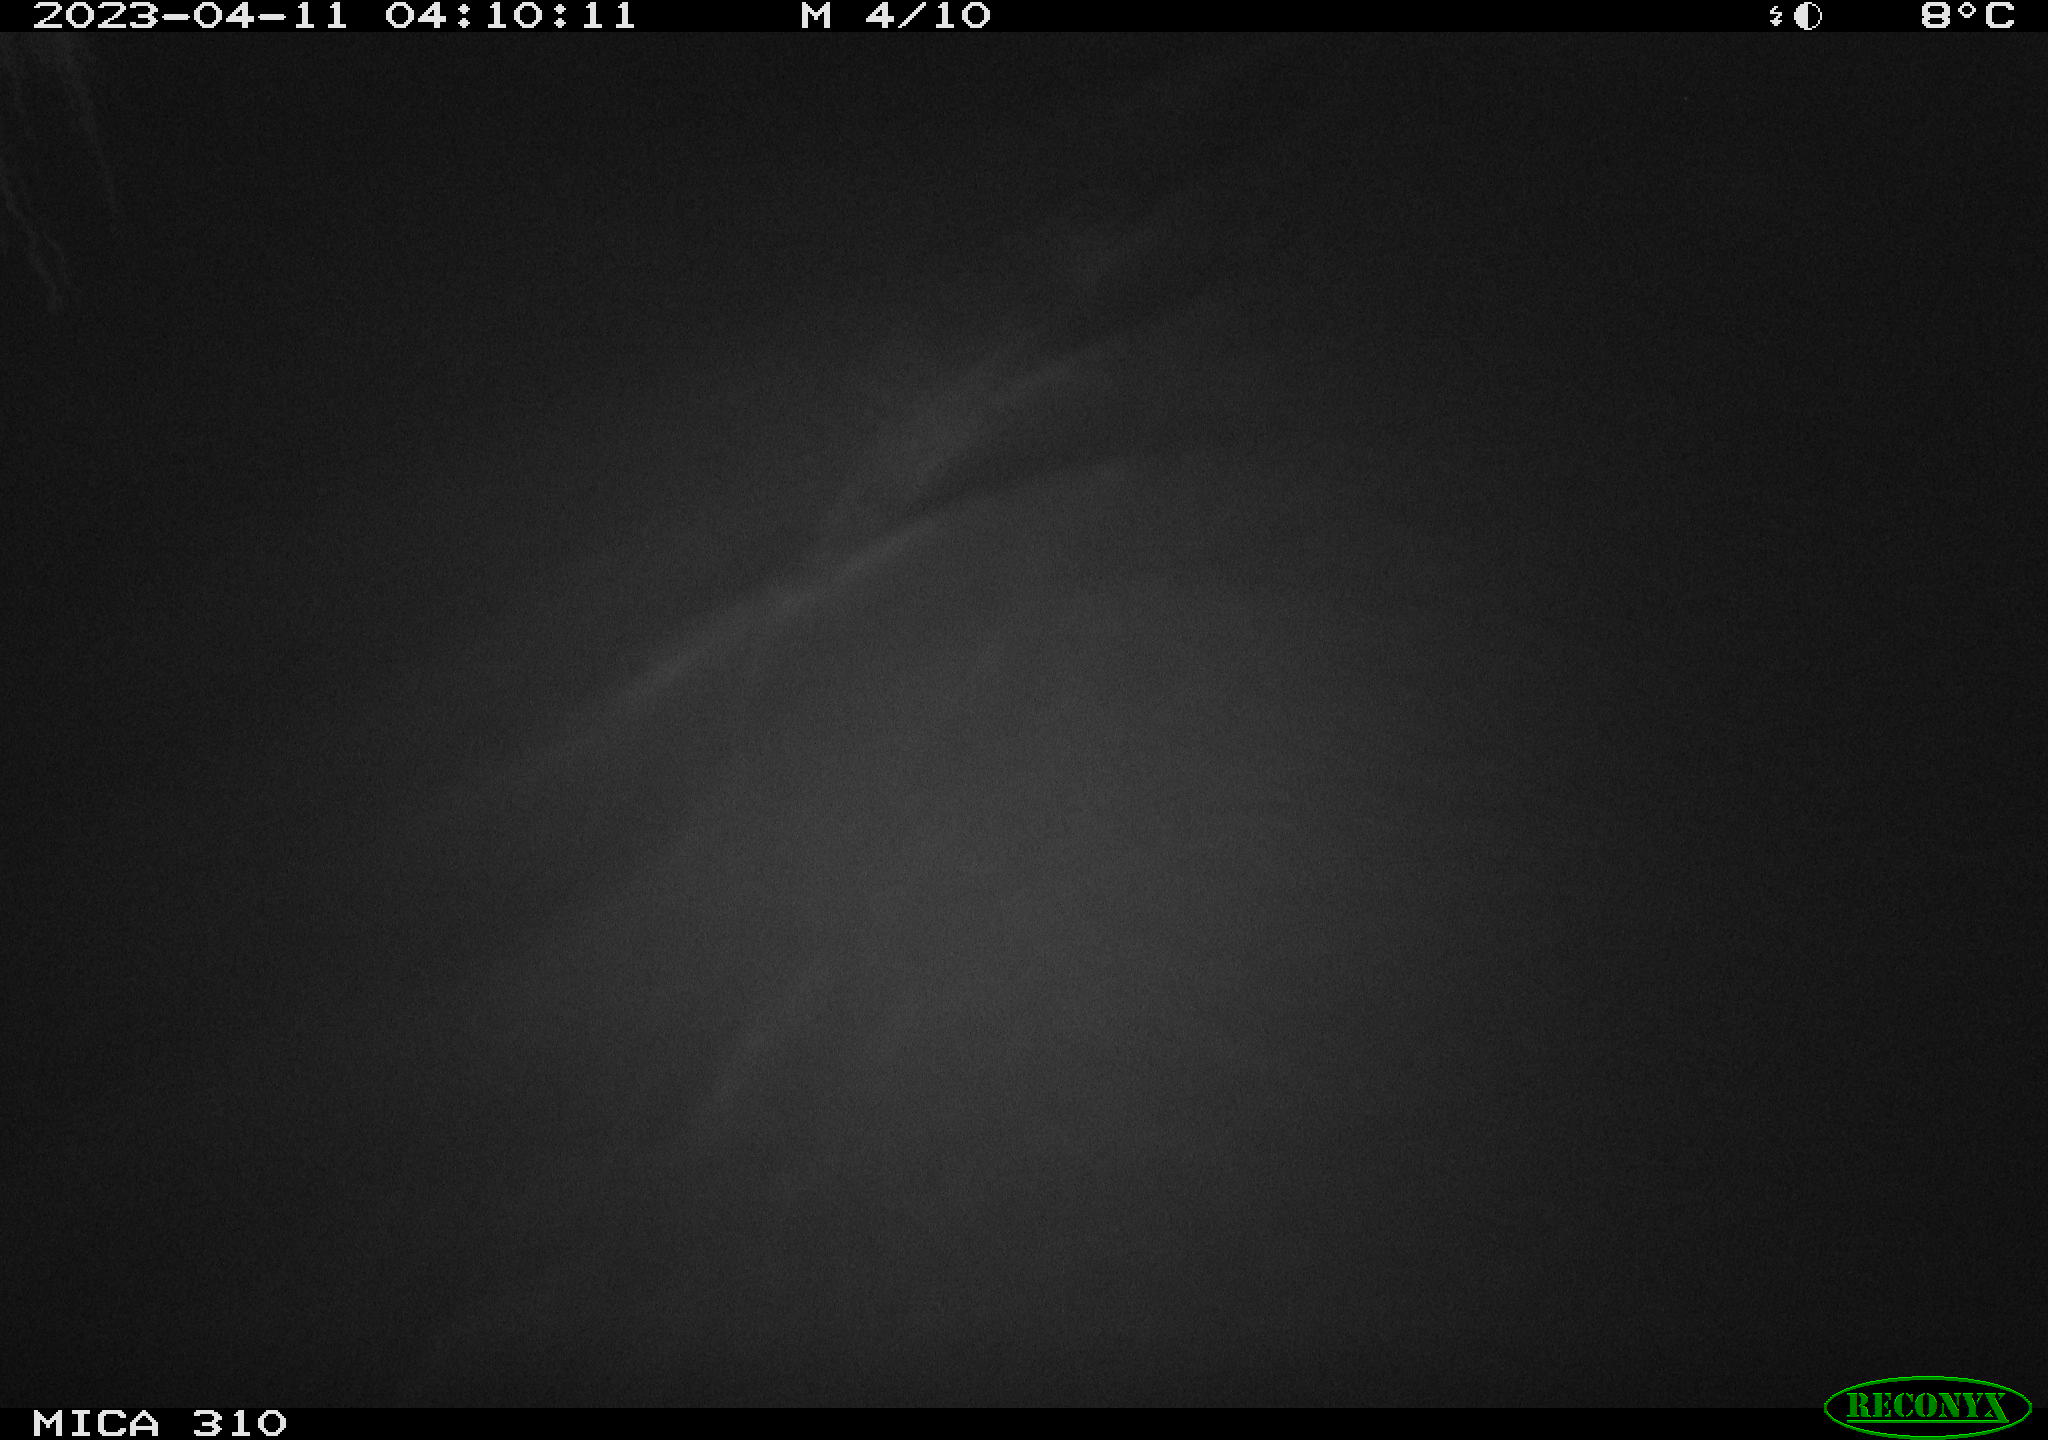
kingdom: Animalia
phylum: Chordata
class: Aves
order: Anseriformes
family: Anatidae
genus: Anas
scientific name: Anas
